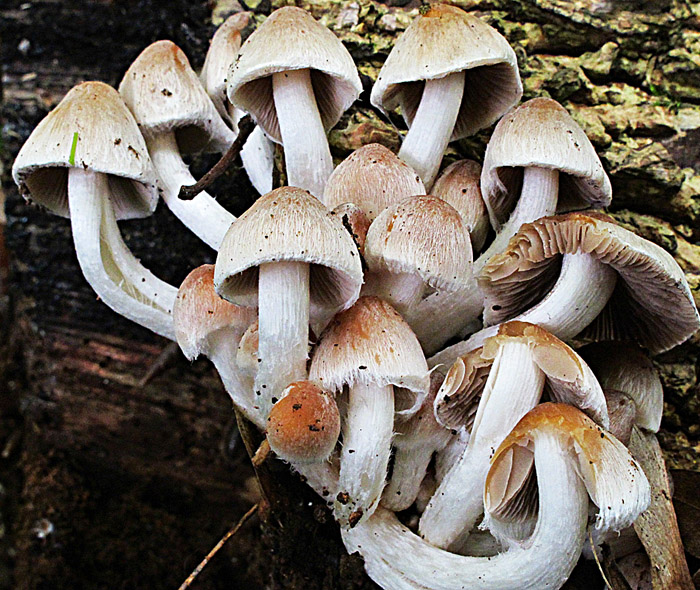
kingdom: Fungi
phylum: Basidiomycota
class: Agaricomycetes
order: Agaricales
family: Psathyrellaceae
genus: Coprinopsis
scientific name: Coprinopsis pannucioides
